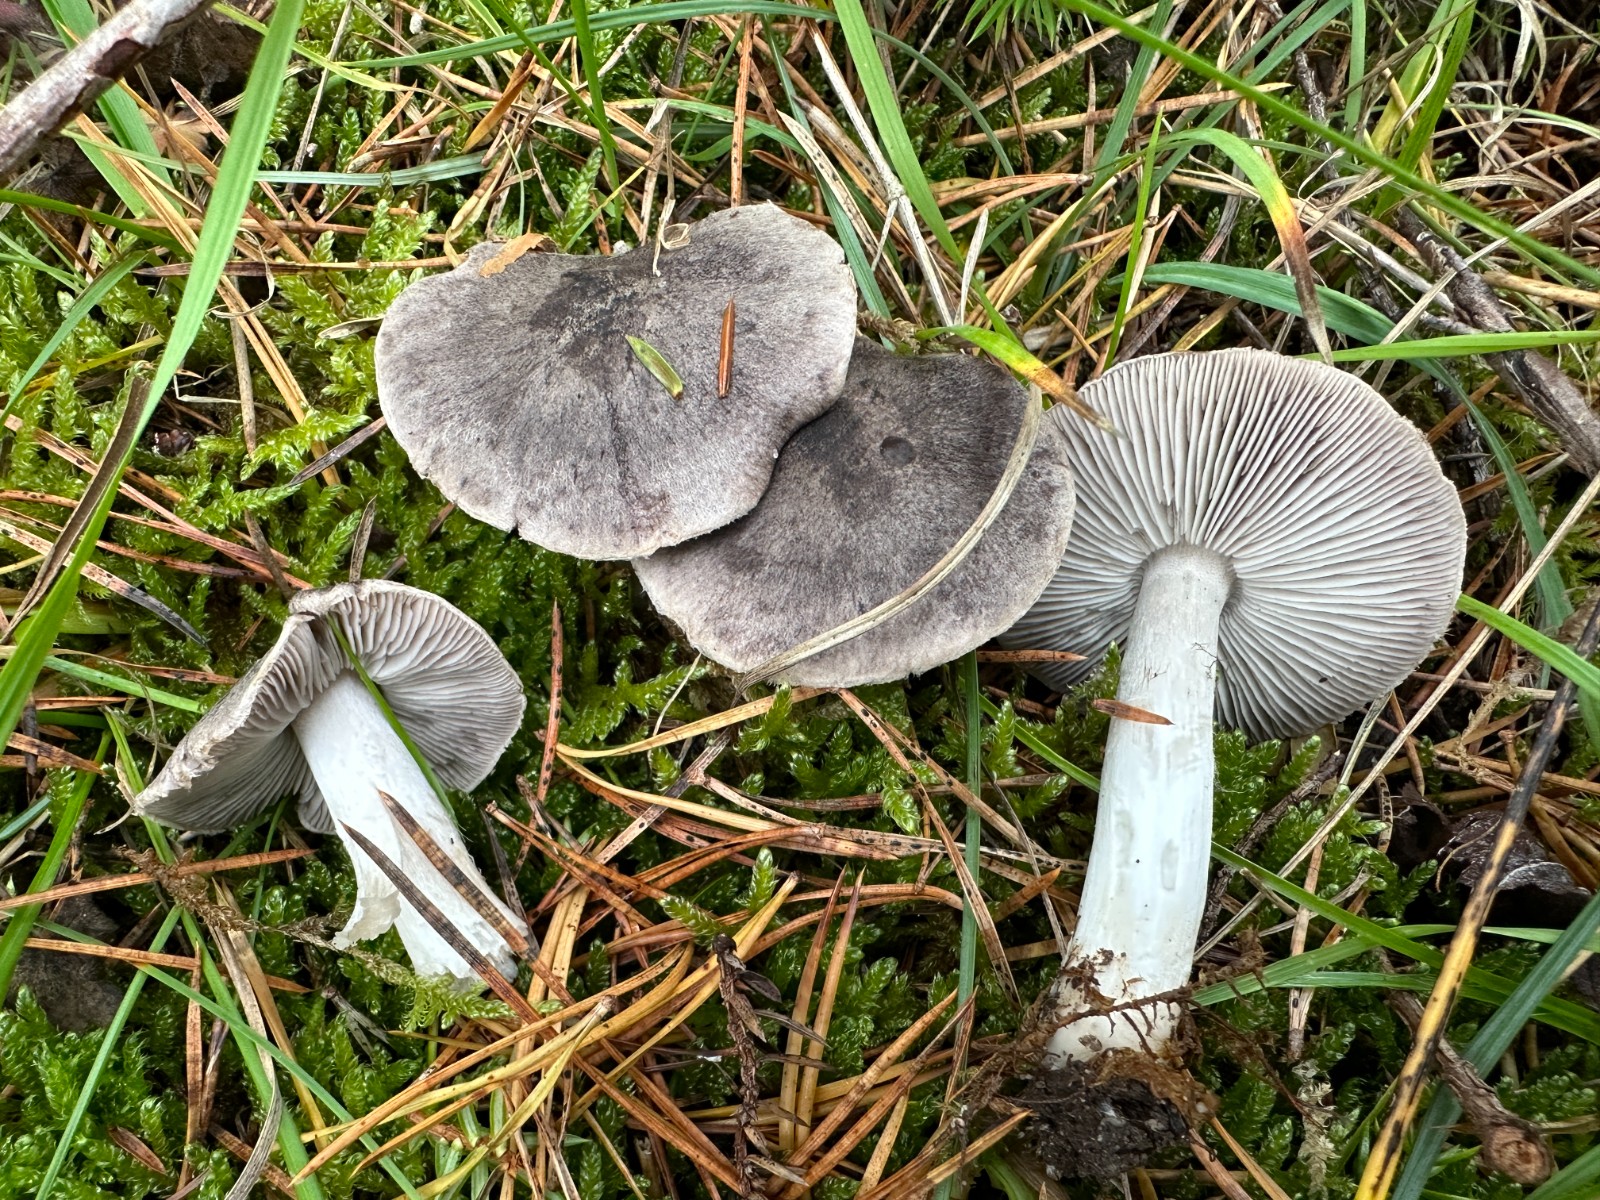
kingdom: Fungi
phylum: Basidiomycota
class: Agaricomycetes
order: Agaricales
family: Tricholomataceae
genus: Tricholoma
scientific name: Tricholoma terreum
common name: jordfarvet ridderhat
